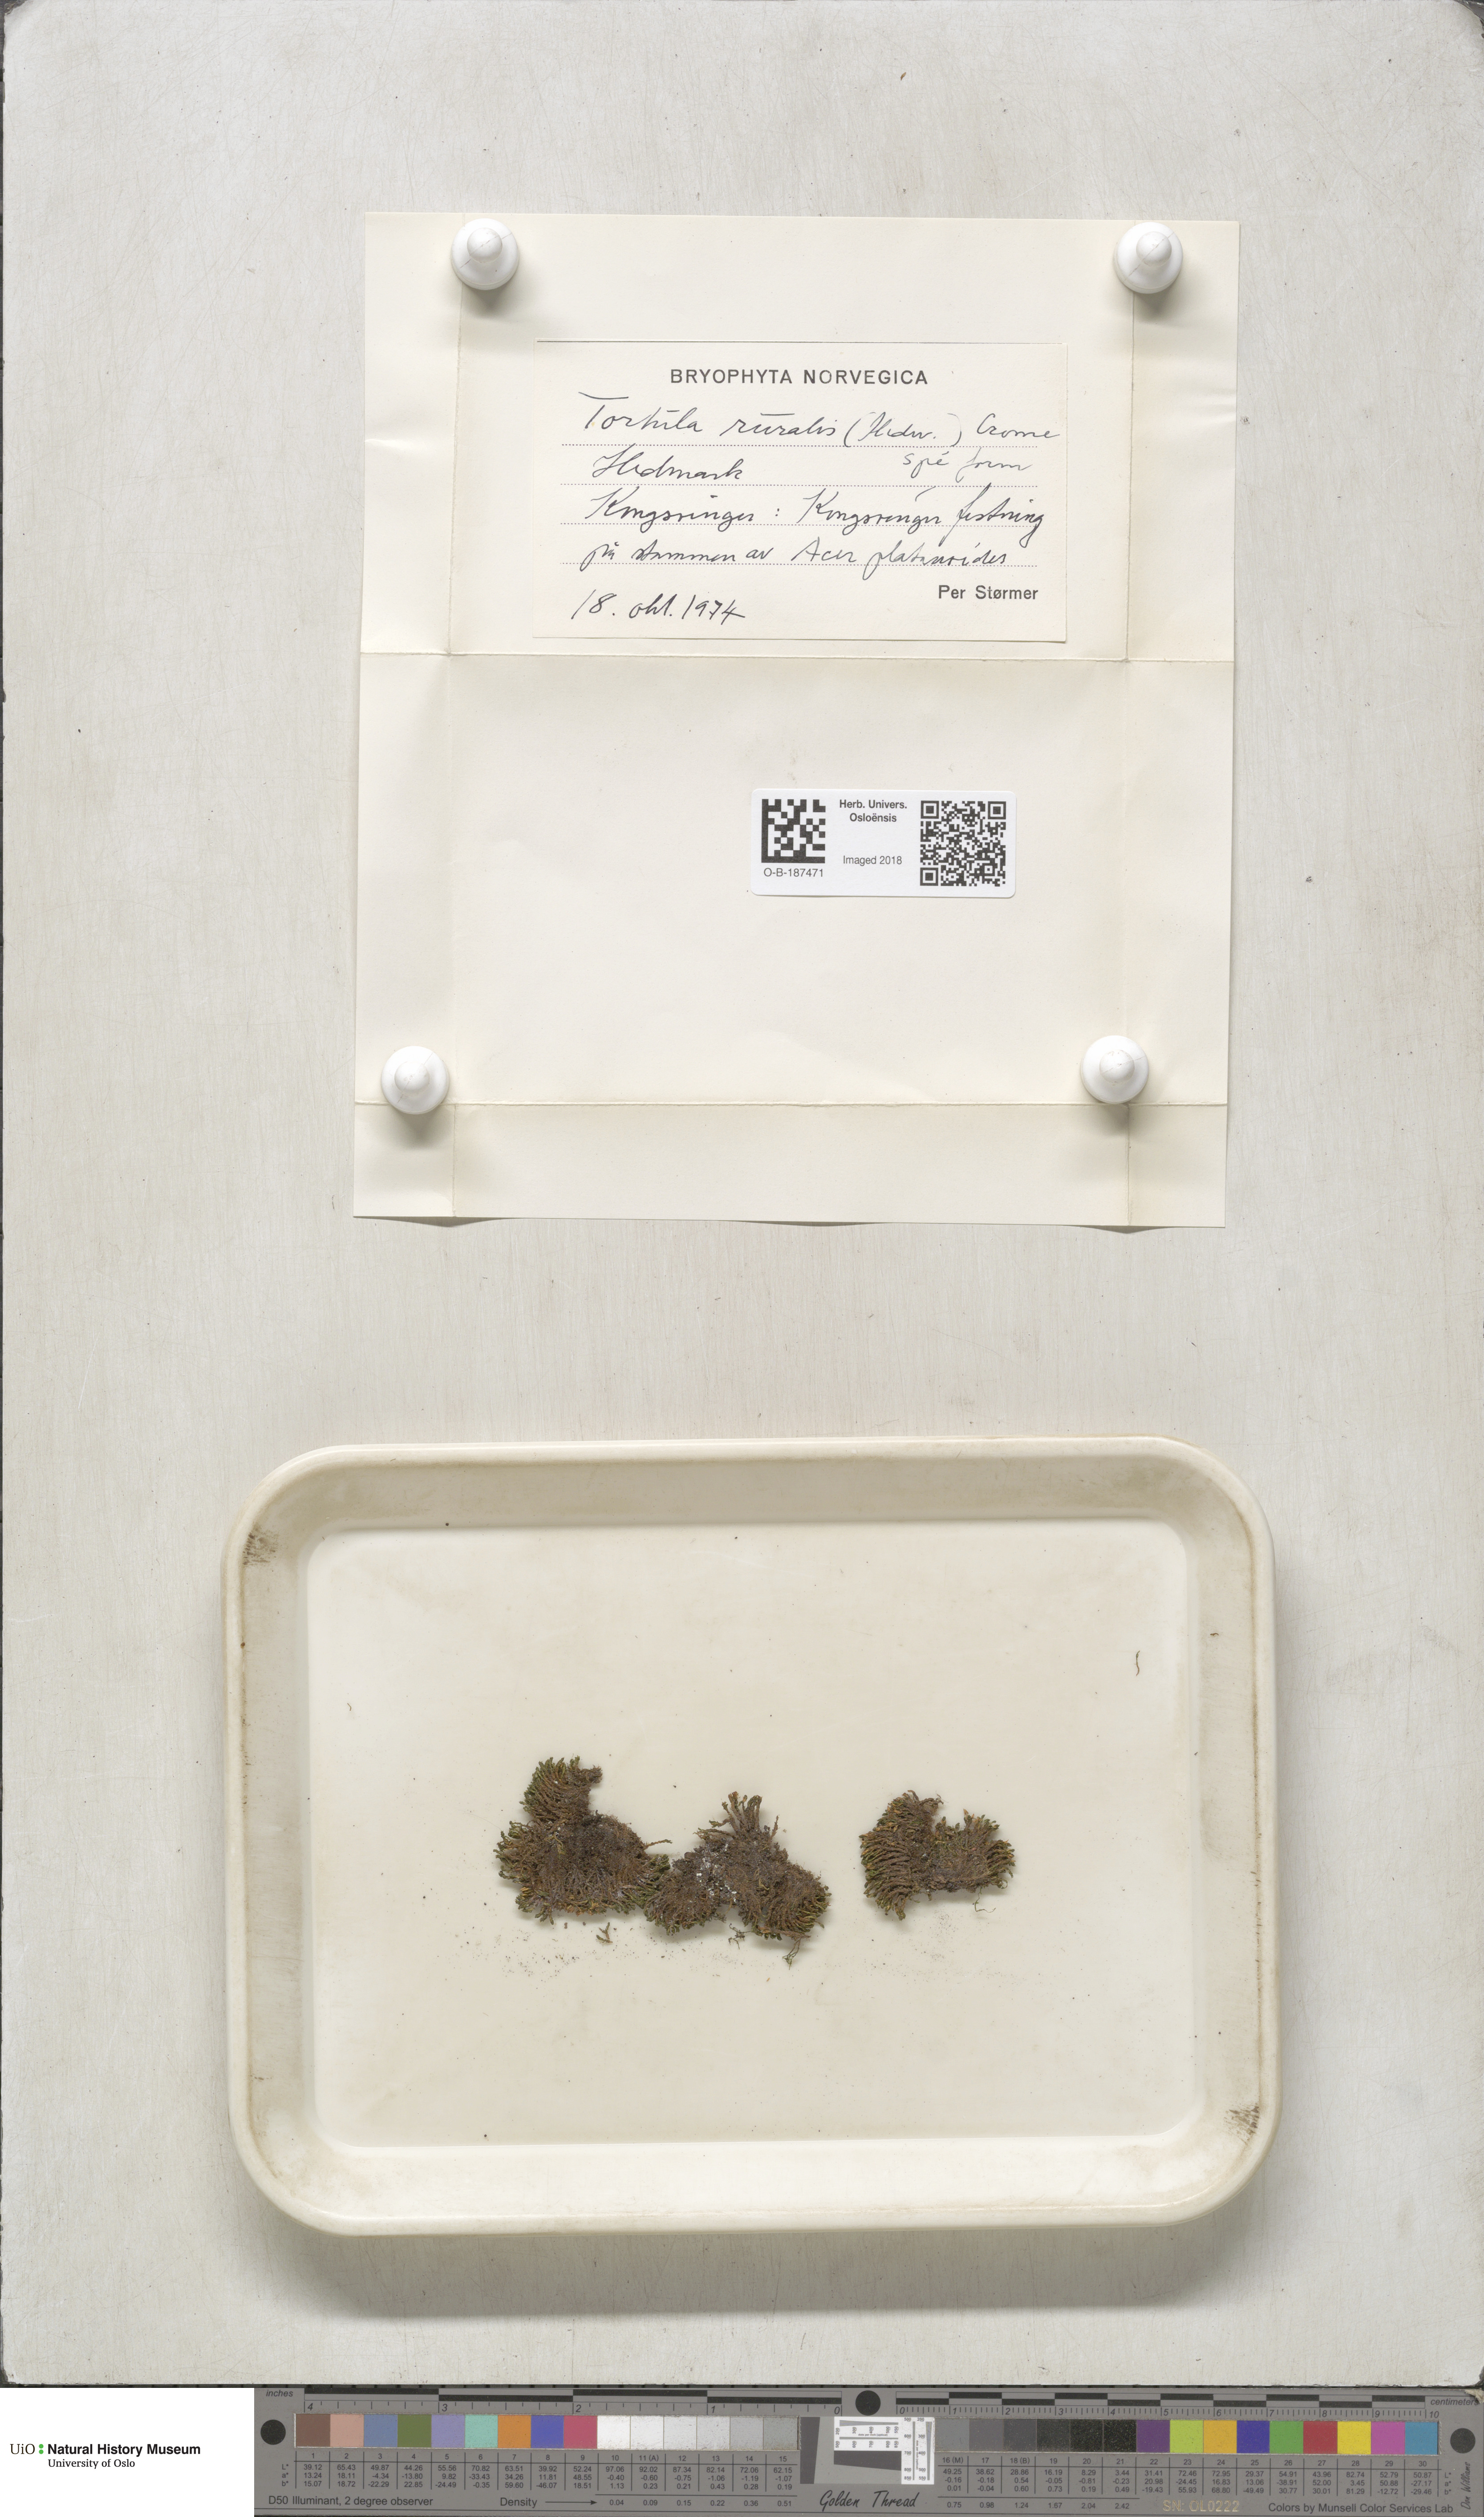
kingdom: Plantae
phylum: Bryophyta
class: Bryopsida
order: Pottiales
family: Pottiaceae
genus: Syntrichia
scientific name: Syntrichia ruralis
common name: Sidewalk screw moss
